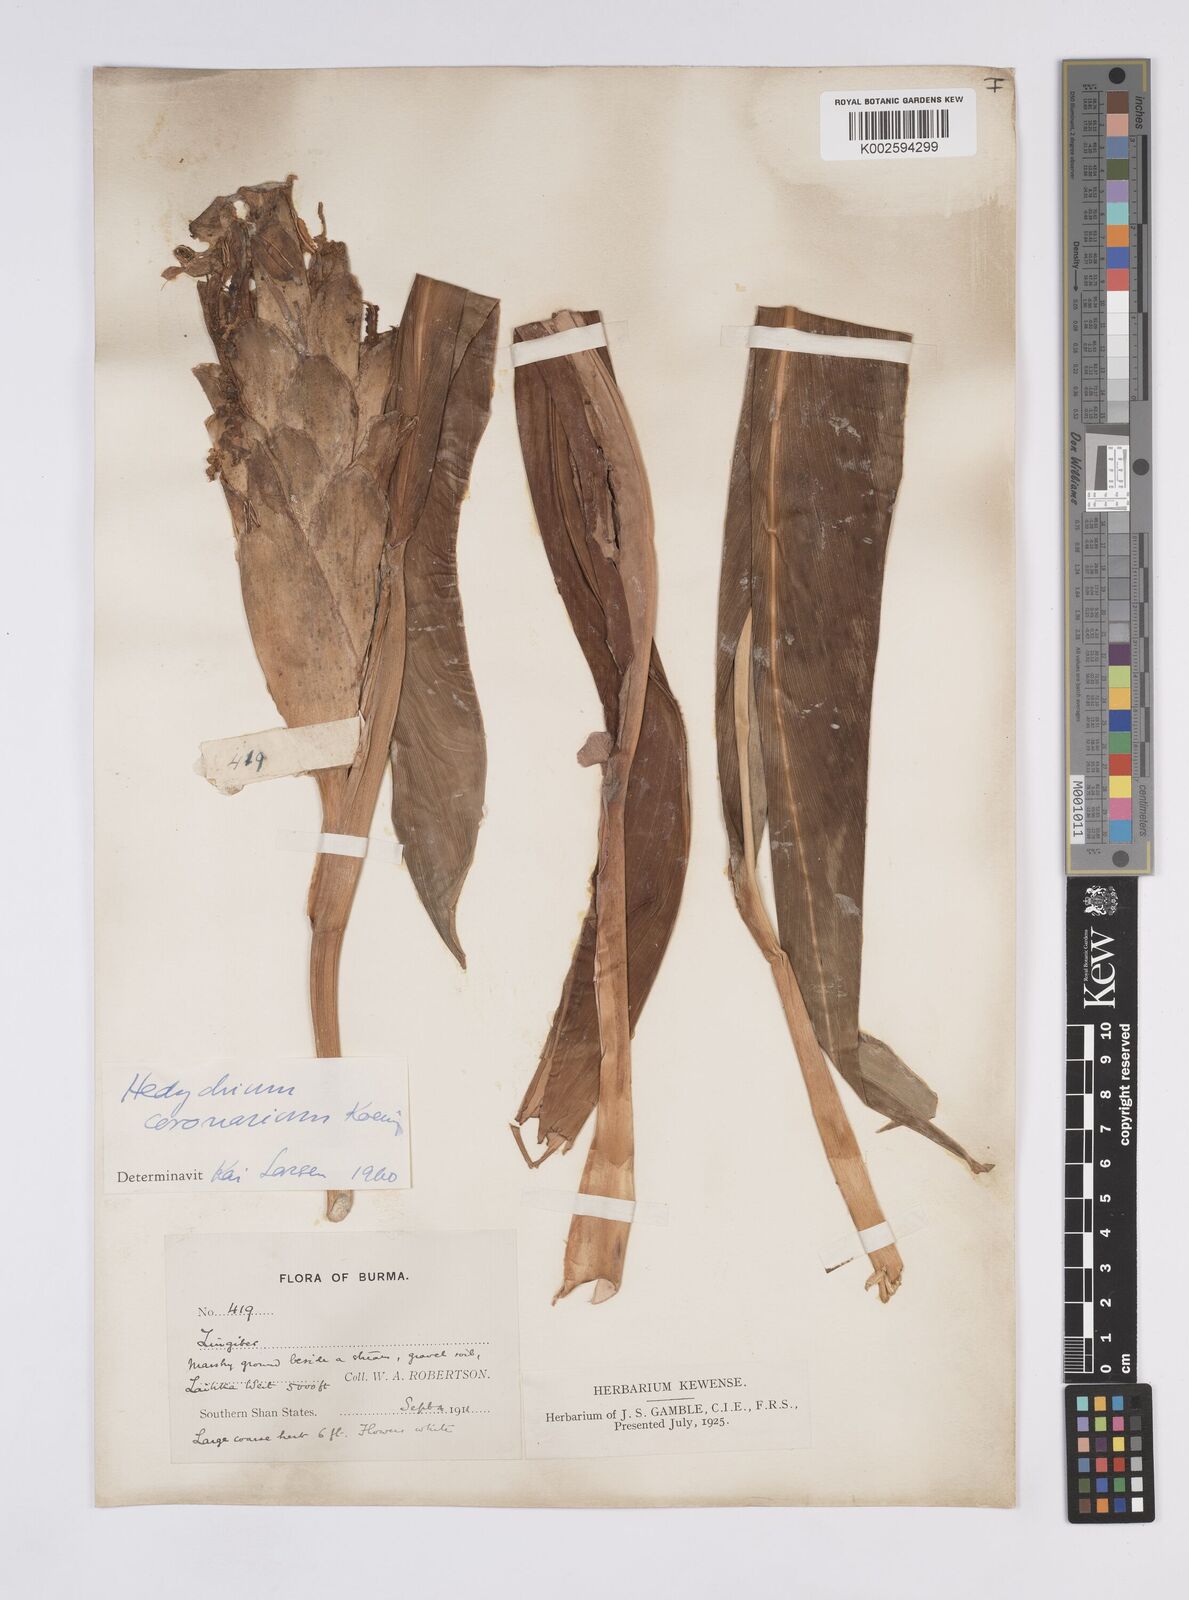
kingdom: Plantae
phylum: Tracheophyta
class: Liliopsida
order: Zingiberales
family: Zingiberaceae
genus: Hedychium
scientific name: Hedychium coronarium
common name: White garland-lily
